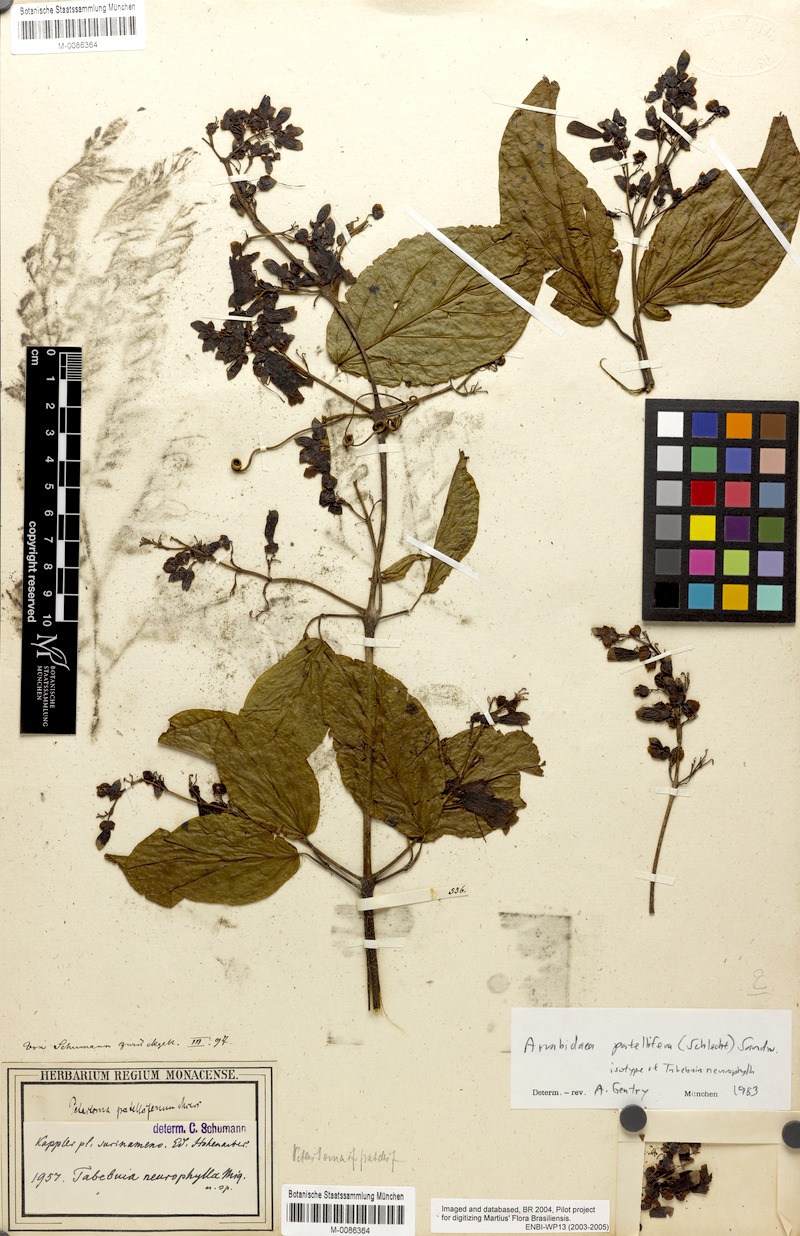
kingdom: Plantae
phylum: Tracheophyta
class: Magnoliopsida
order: Lamiales
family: Bignoniaceae
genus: Fridericia
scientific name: Fridericia patellifera
